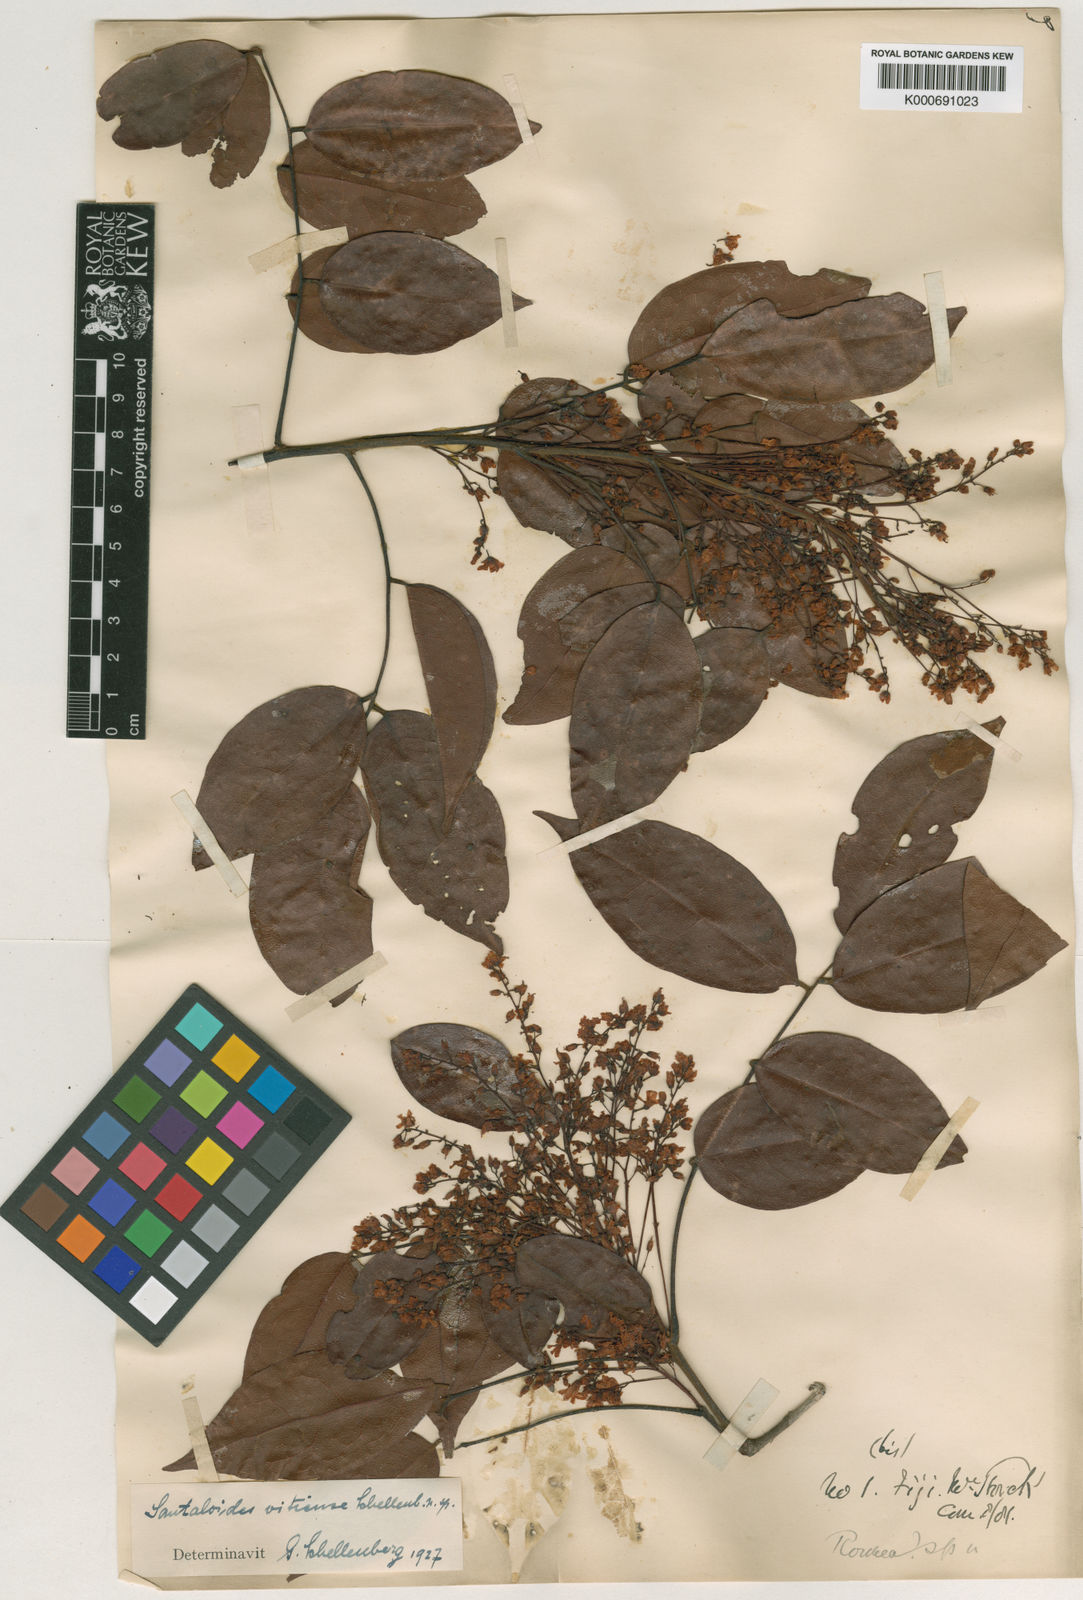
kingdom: Plantae
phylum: Tracheophyta
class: Magnoliopsida
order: Oxalidales
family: Connaraceae
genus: Rourea
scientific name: Rourea
